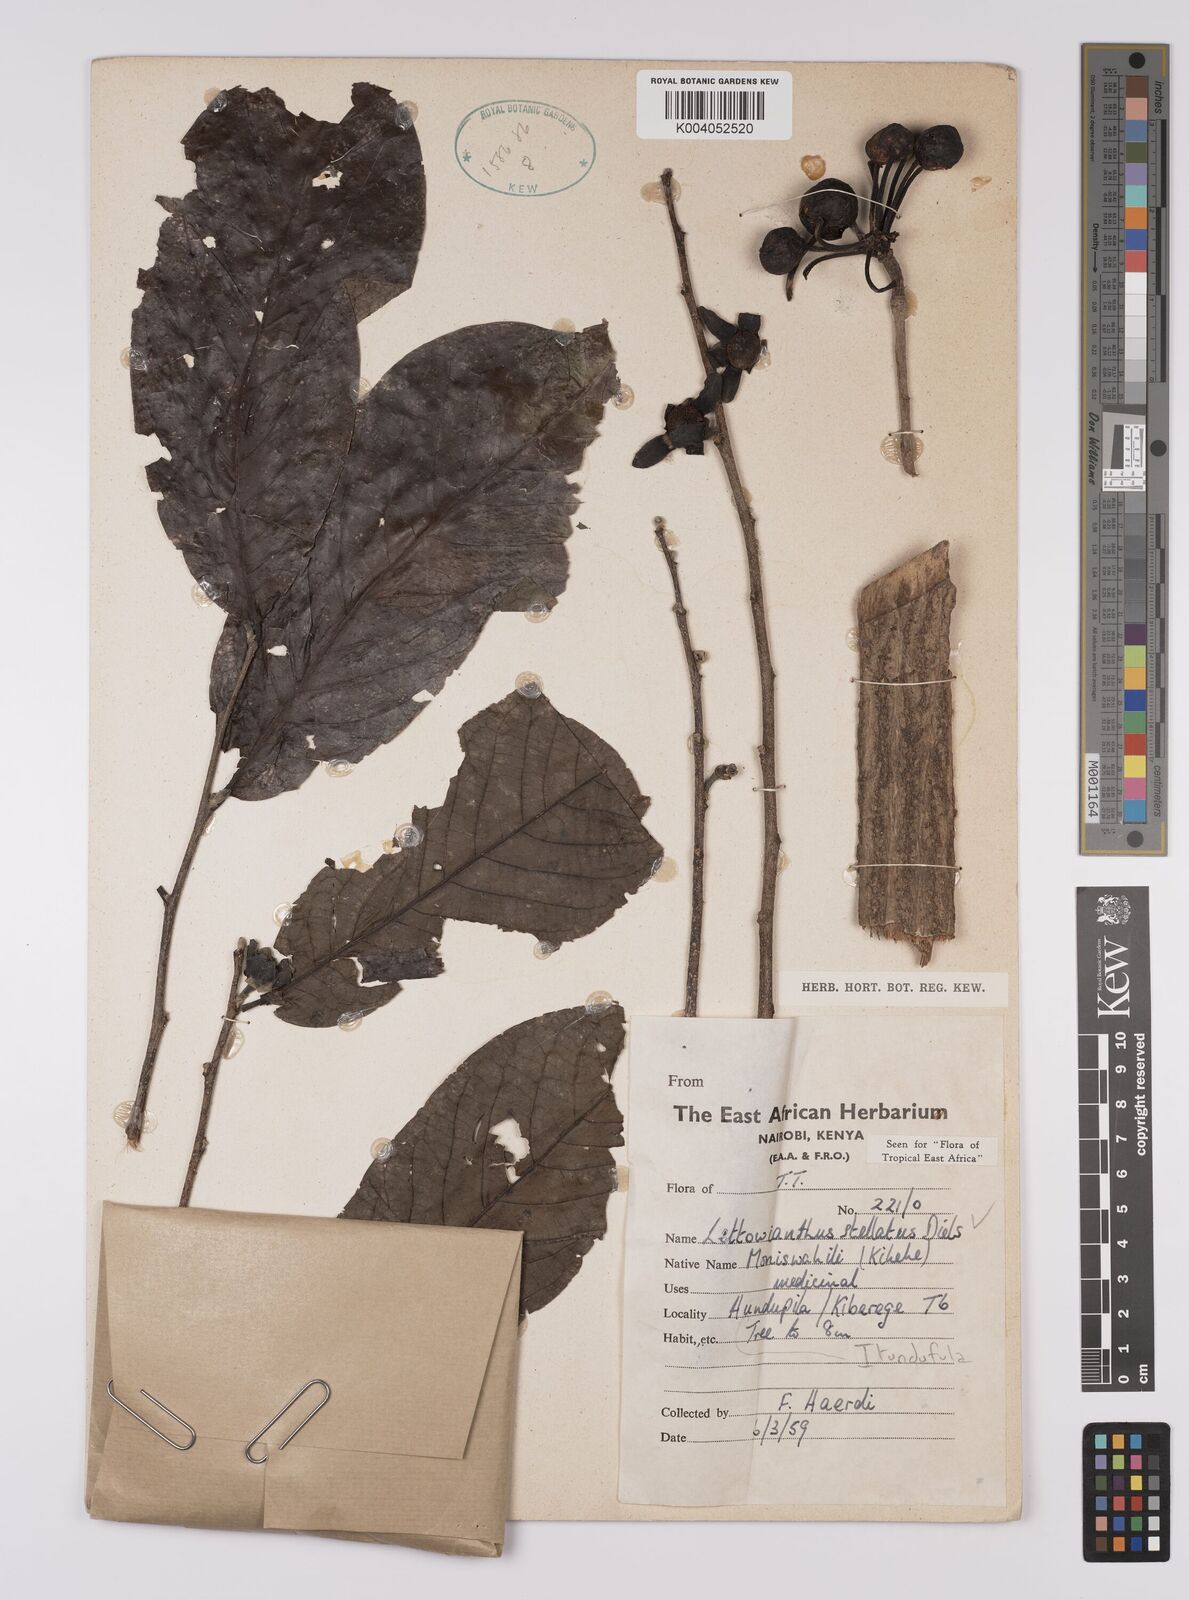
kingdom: Plantae
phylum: Tracheophyta
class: Magnoliopsida
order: Magnoliales
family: Annonaceae
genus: Lettowianthus
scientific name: Lettowianthus stellatus
